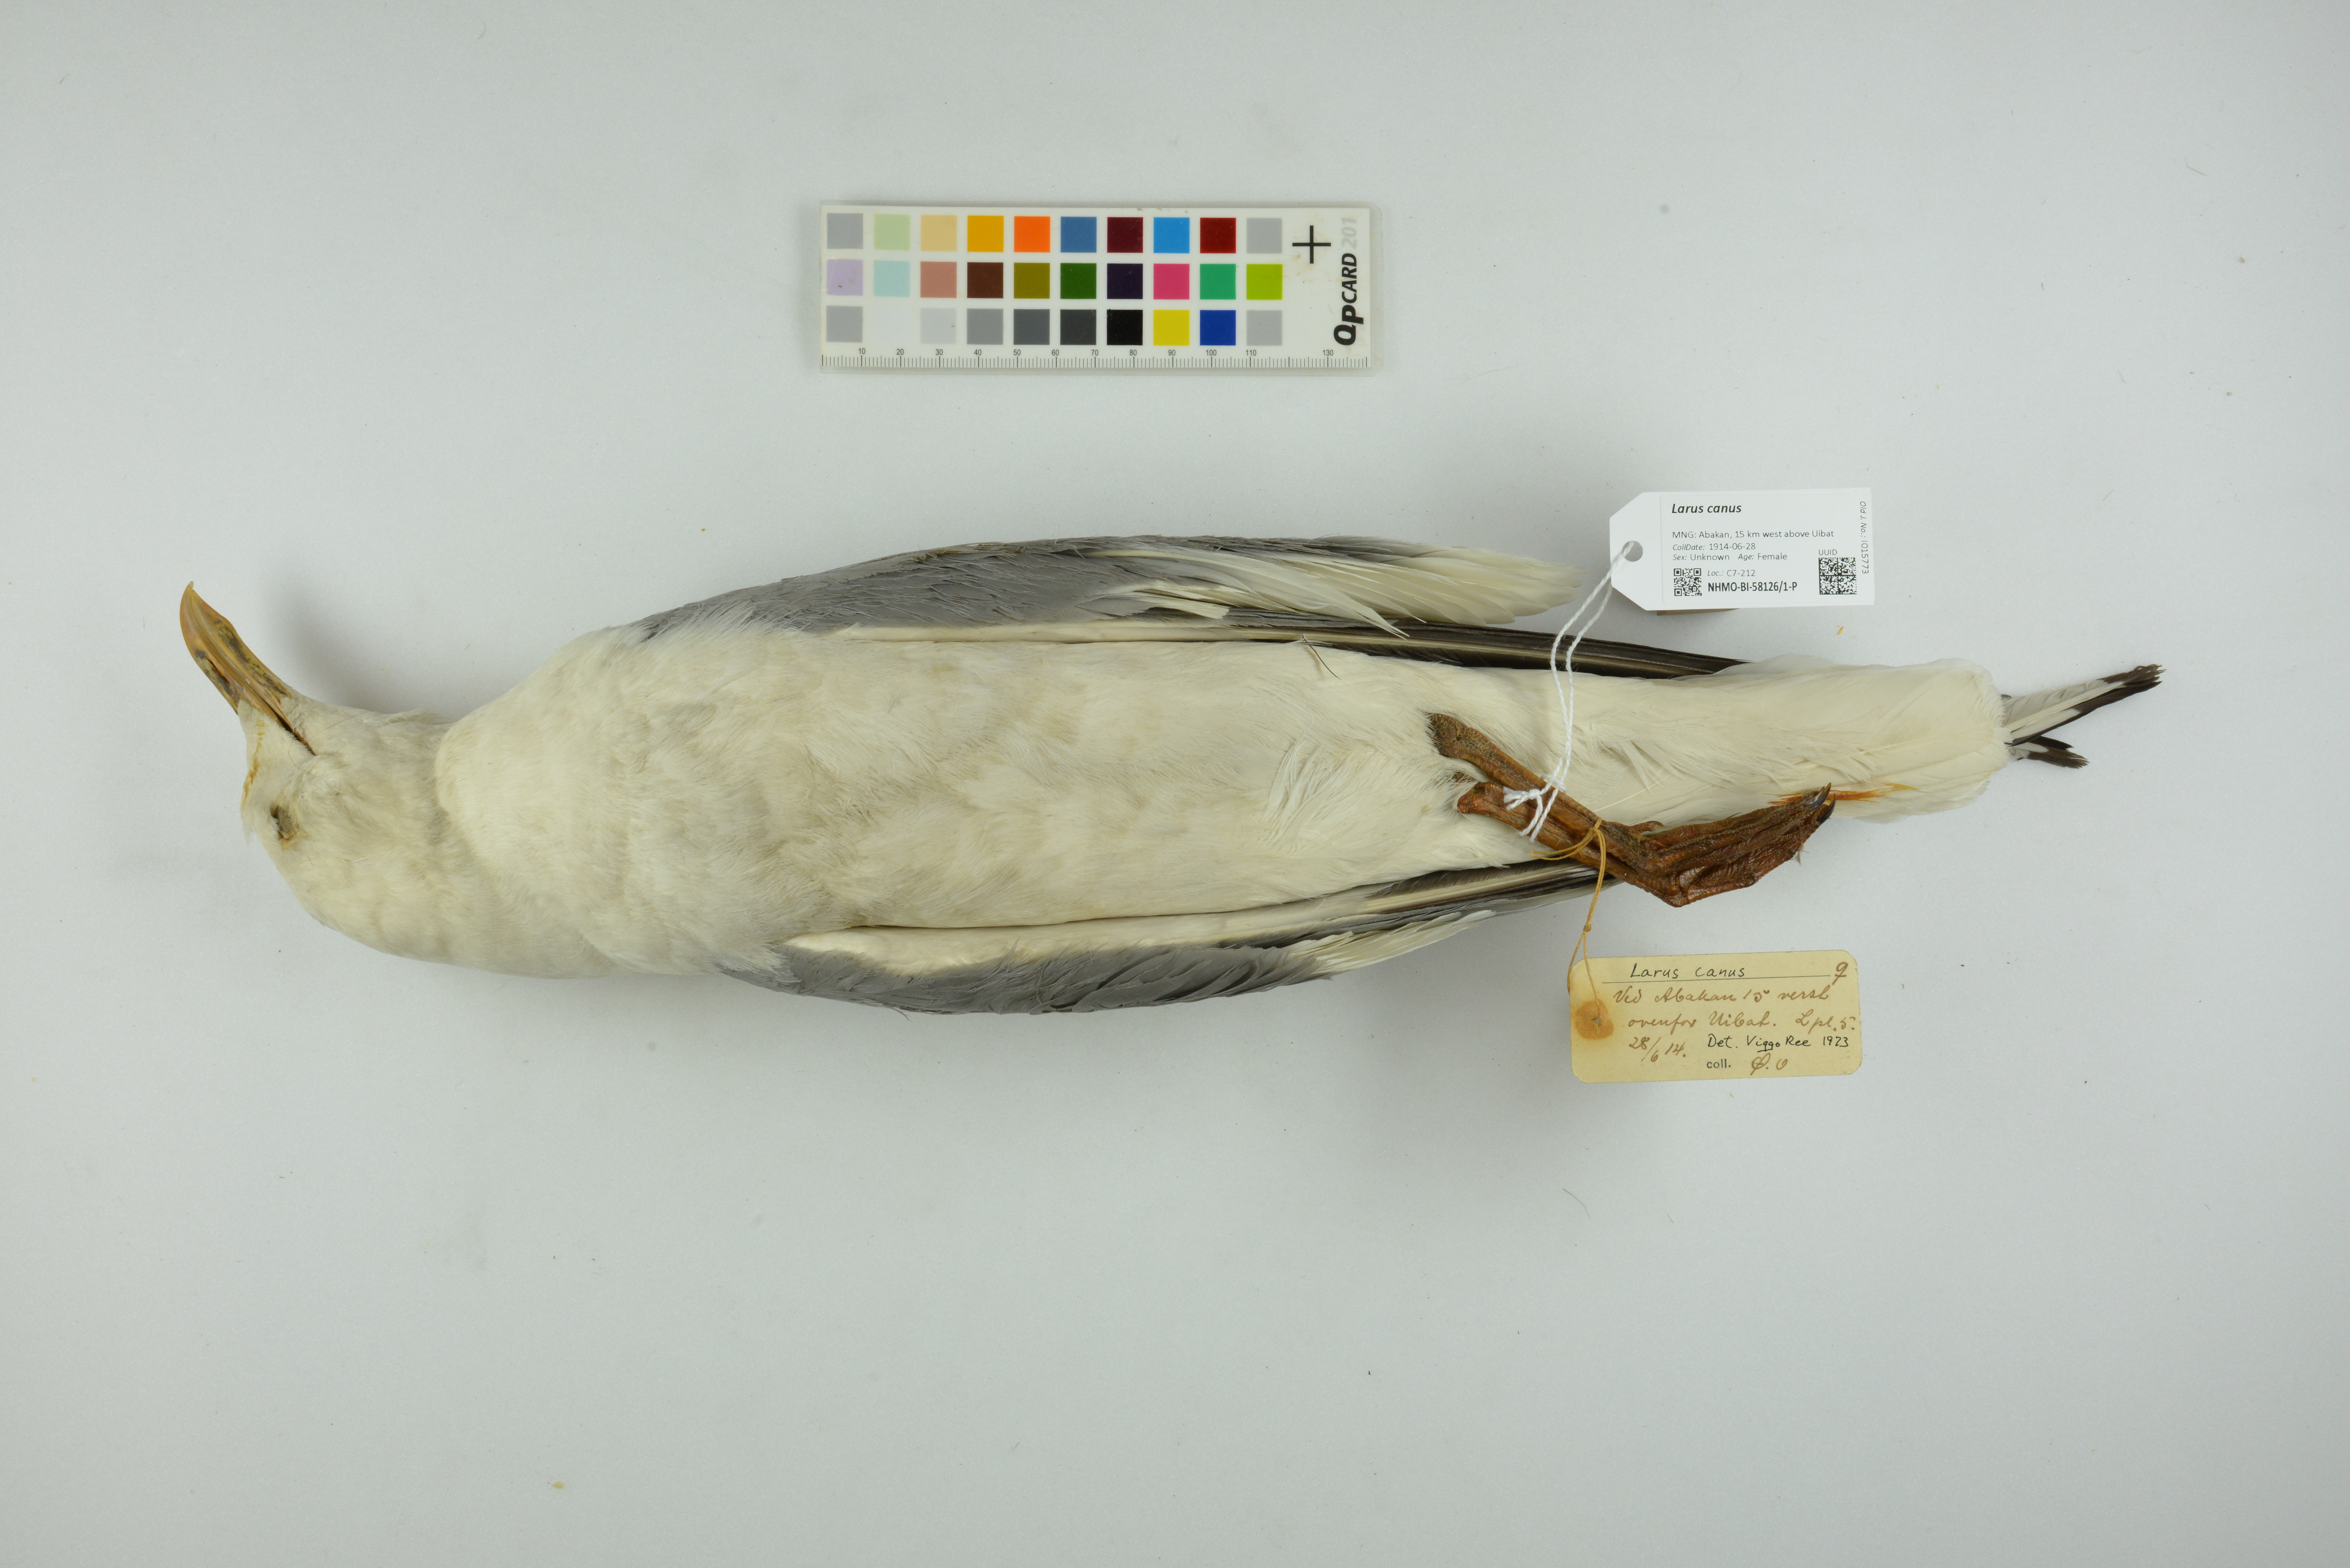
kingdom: Animalia
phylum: Chordata
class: Aves
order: Charadriiformes
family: Laridae
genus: Larus
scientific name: Larus canus
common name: Mew gull
